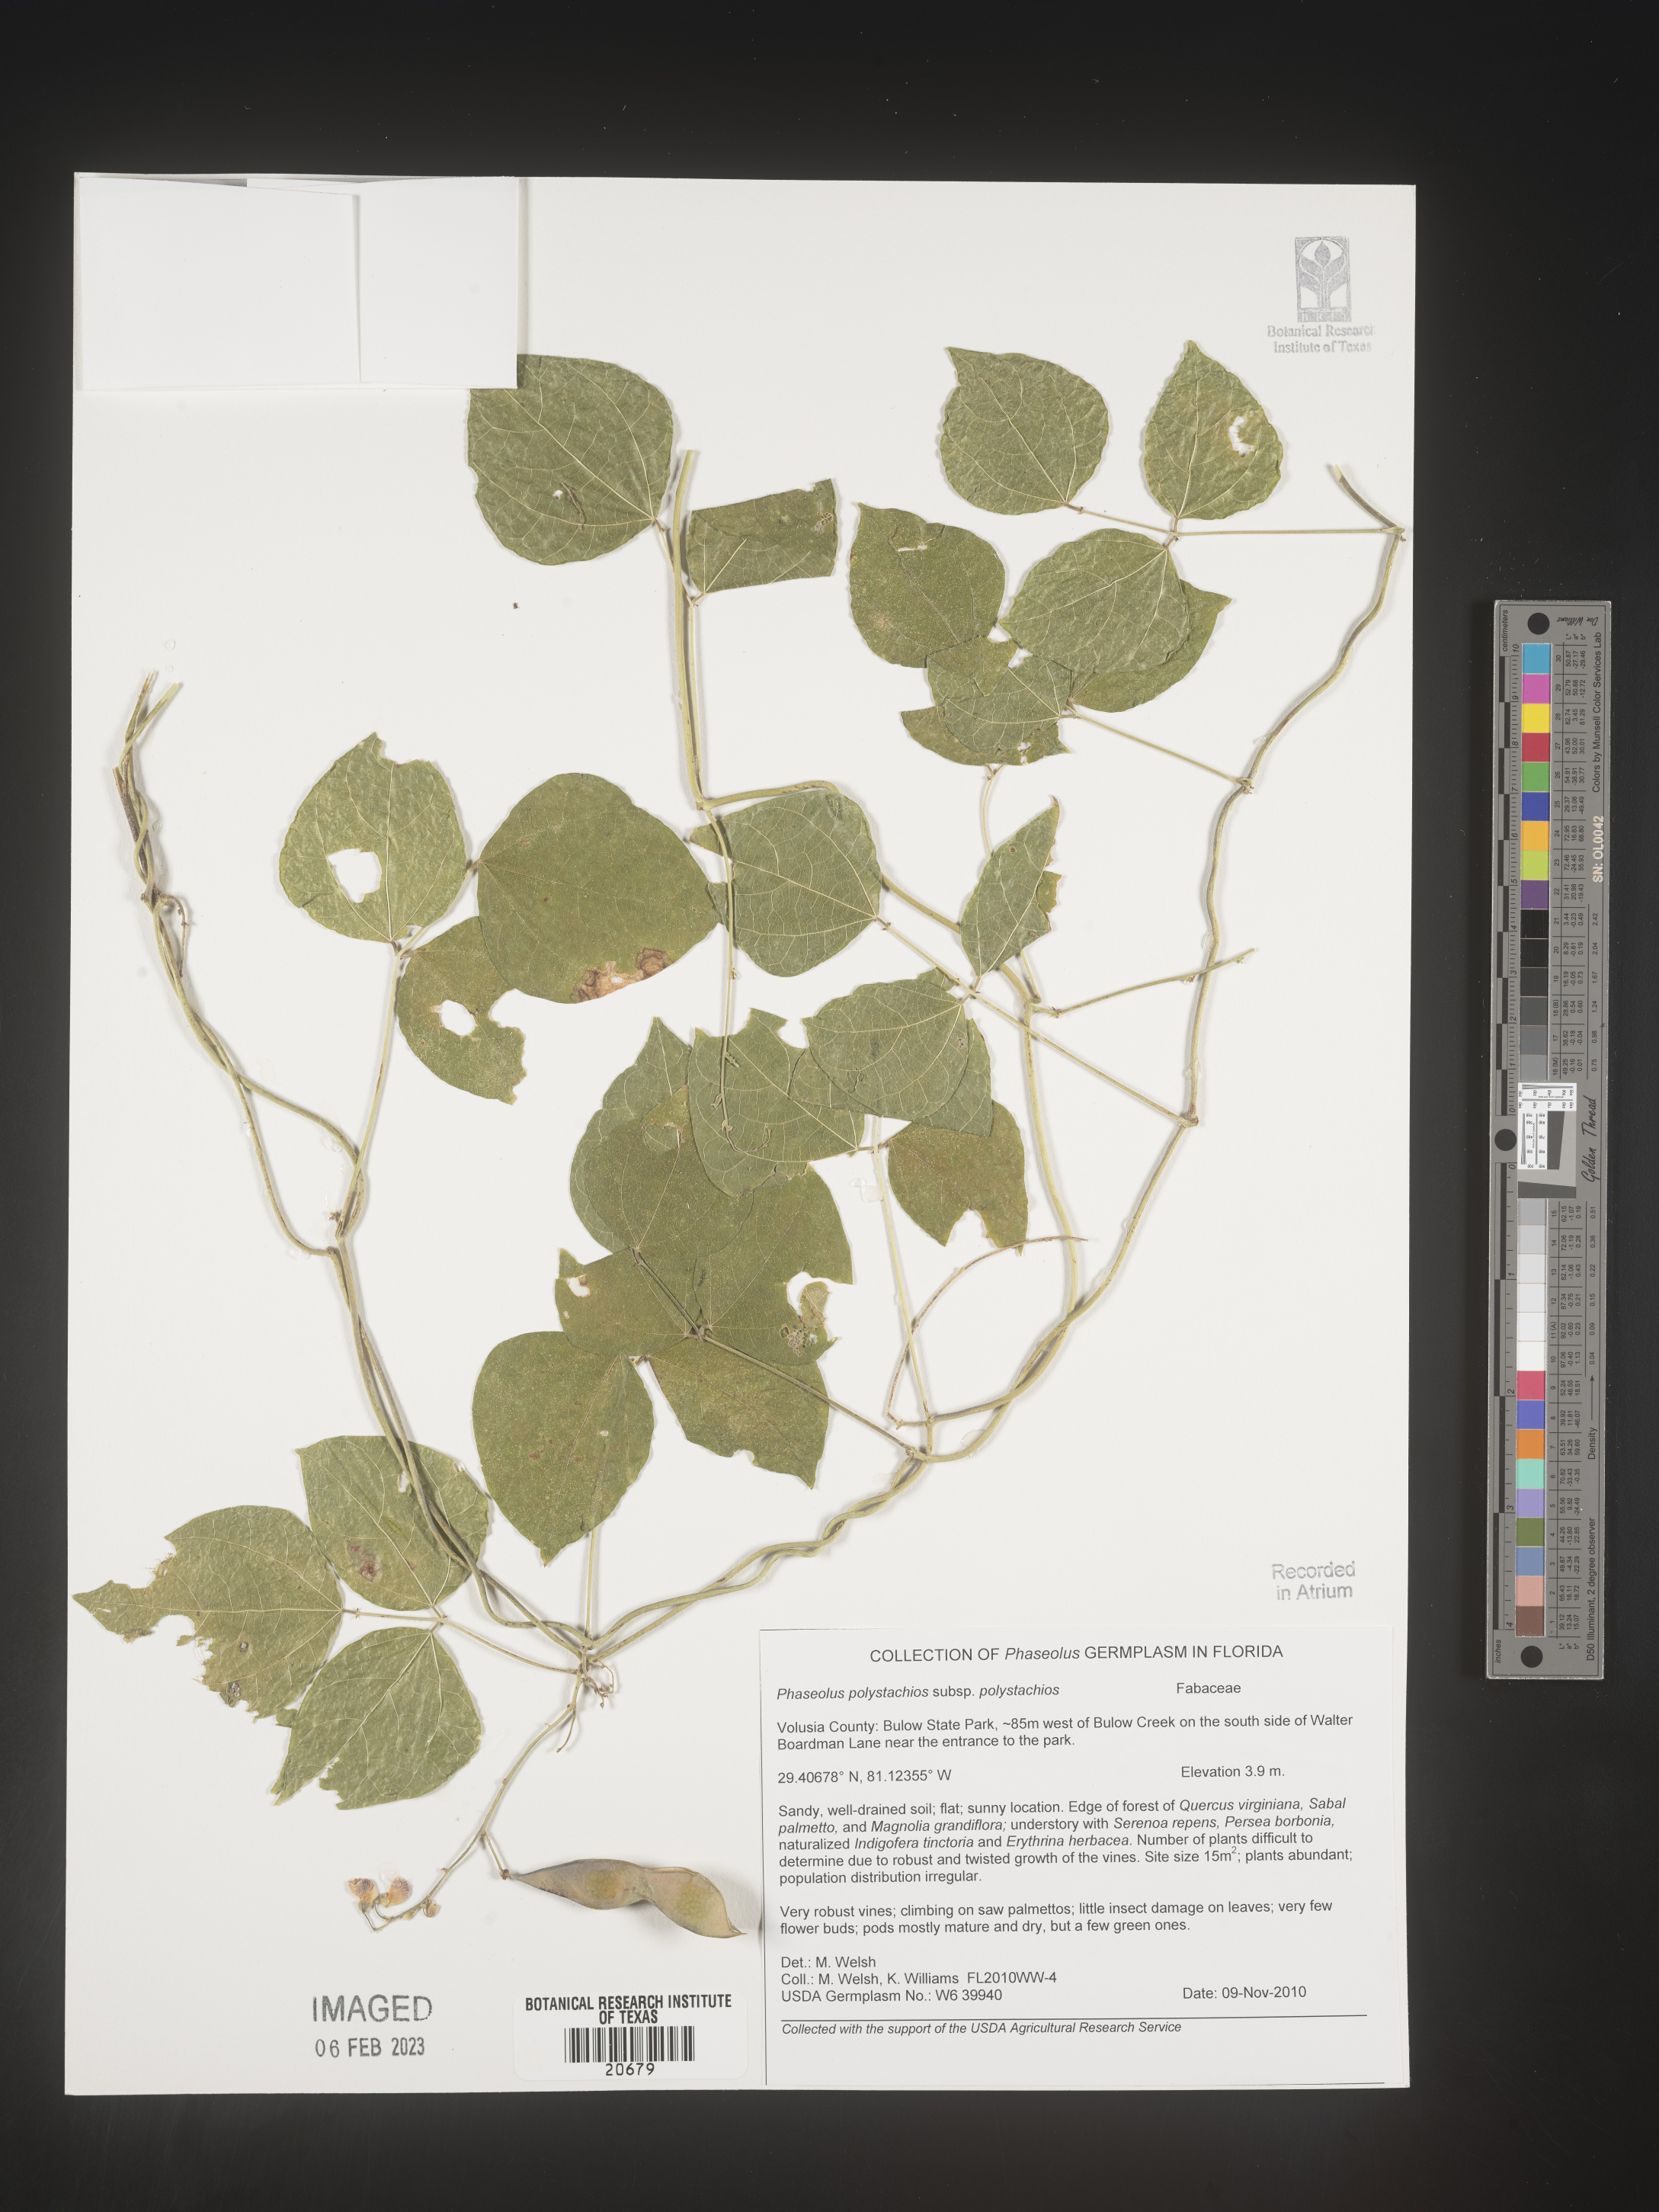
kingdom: Plantae
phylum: Tracheophyta
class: Magnoliopsida
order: Fabales
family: Fabaceae
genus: Phaseolus
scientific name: Phaseolus polystachios
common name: Thicket bean
